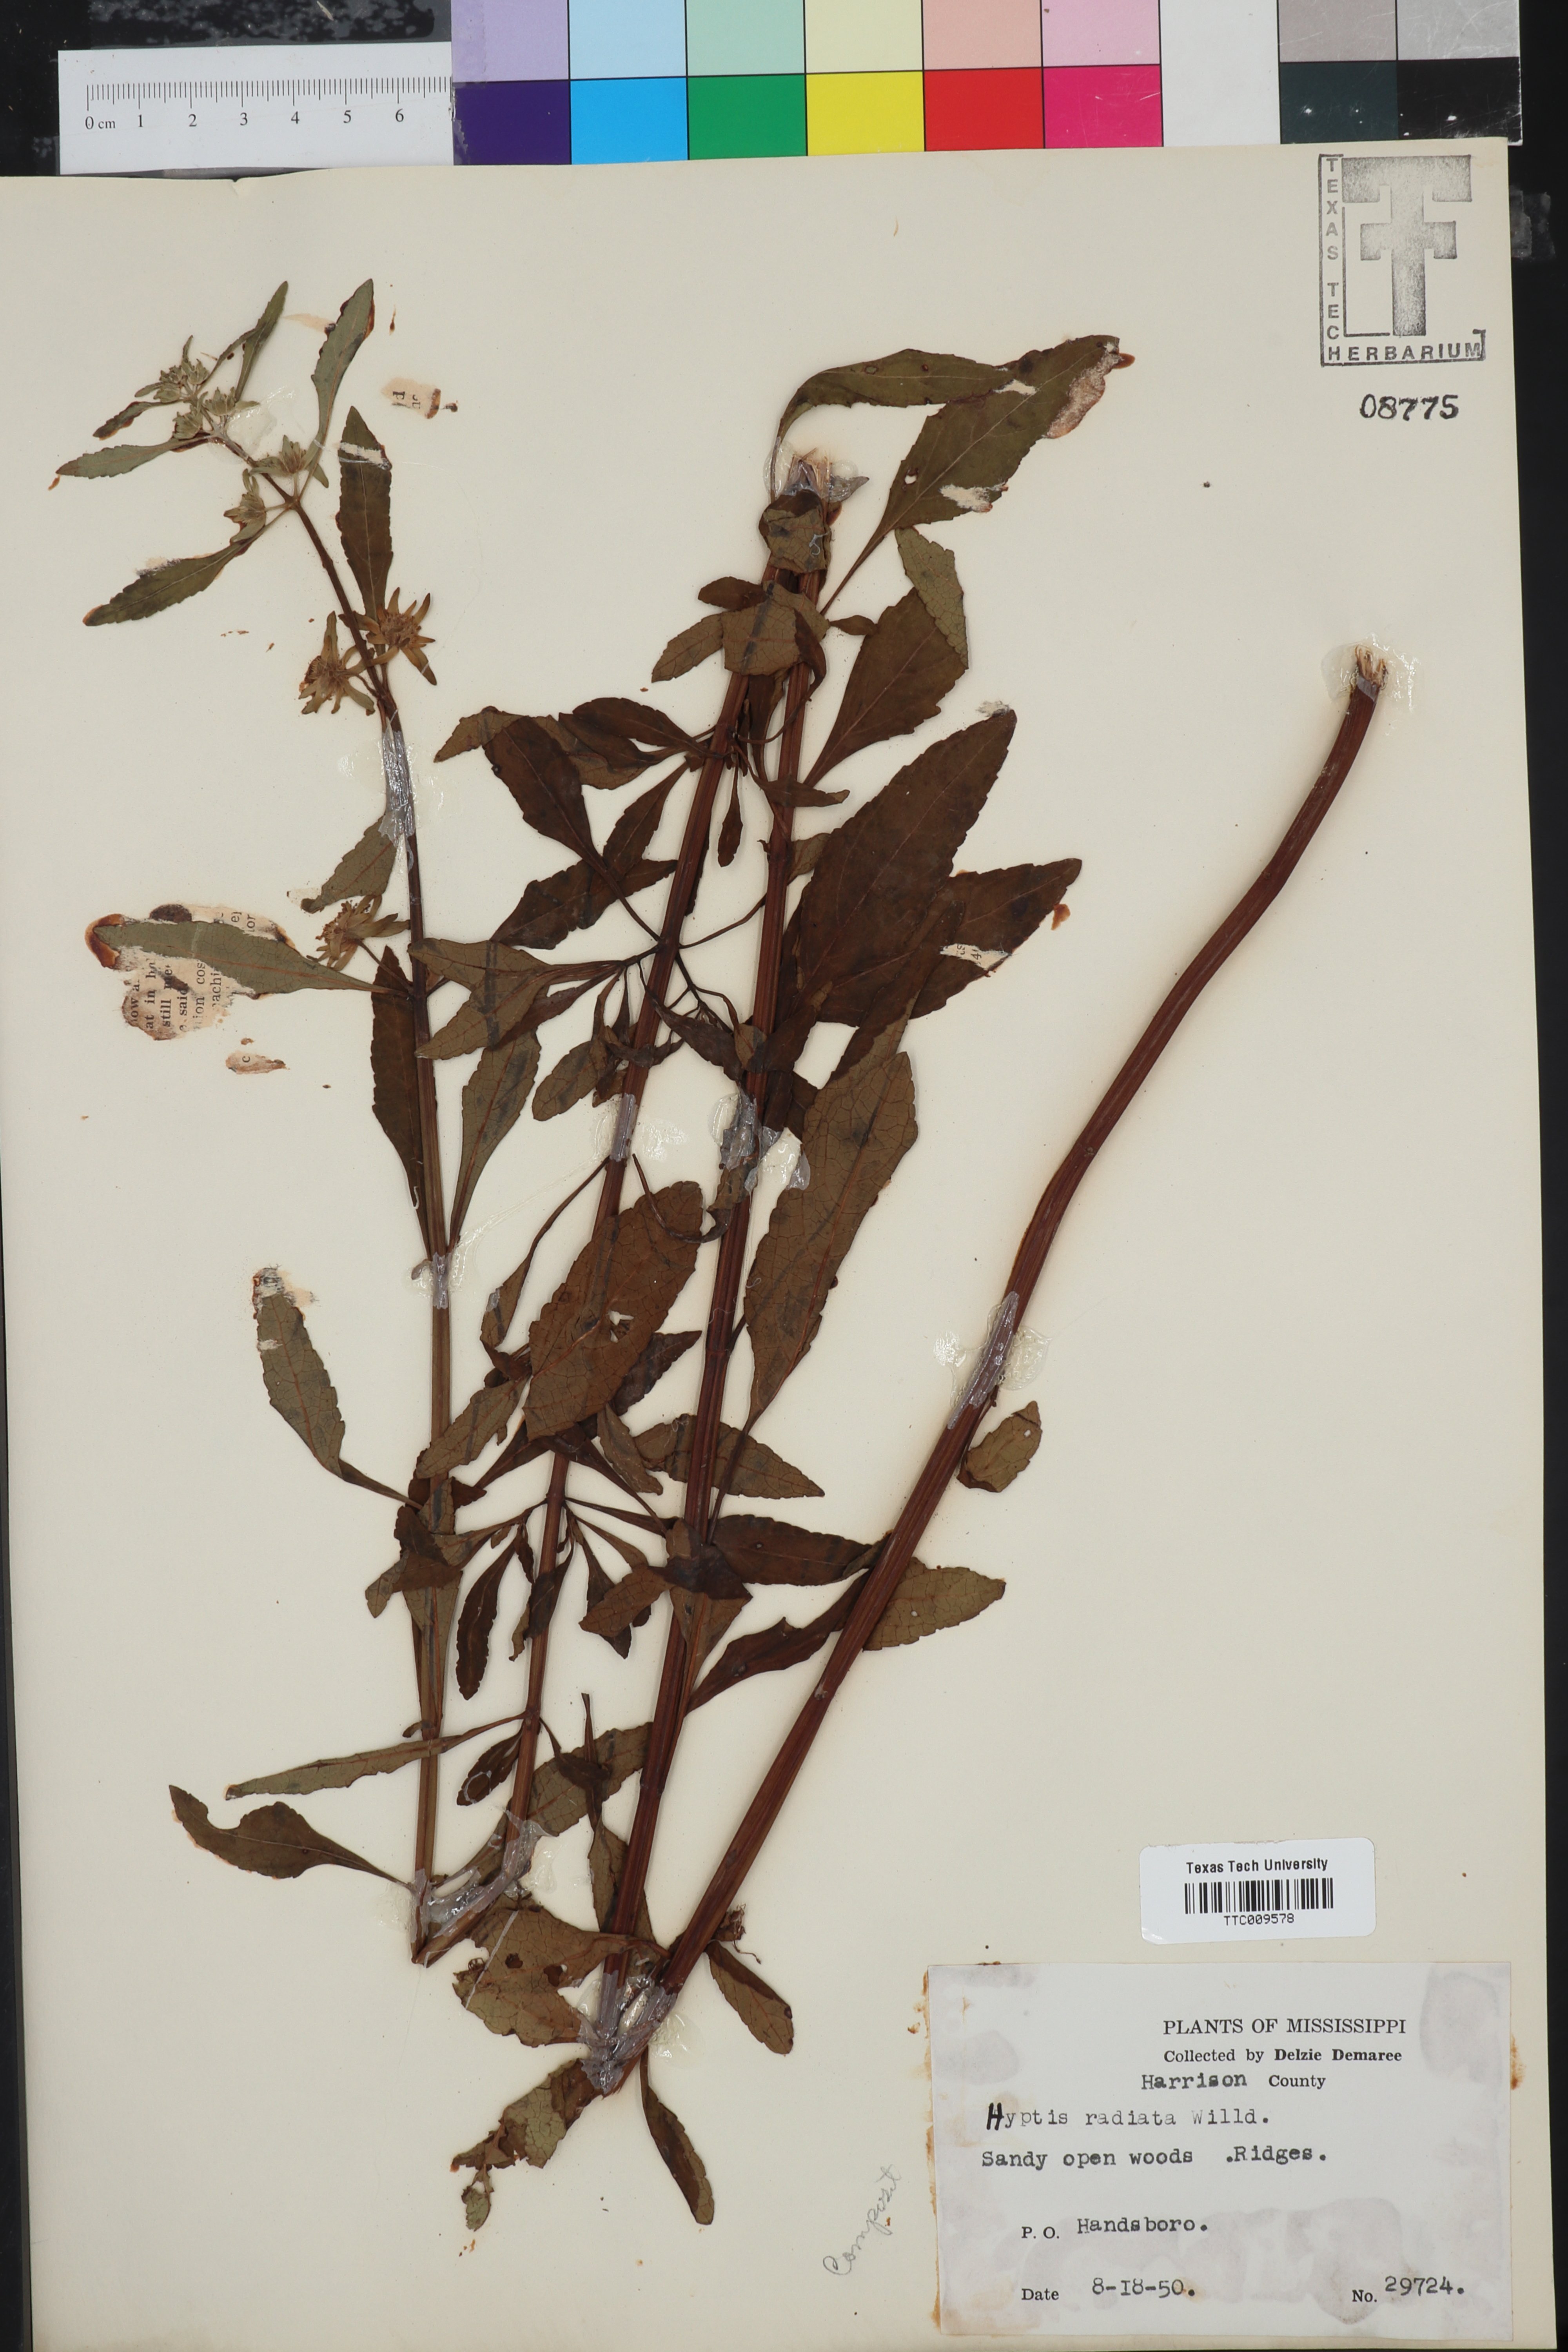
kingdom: Plantae
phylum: Tracheophyta
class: Magnoliopsida
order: Lamiales
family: Lamiaceae
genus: Hyptis
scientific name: Hyptis alata
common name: Cluster bush-mint
